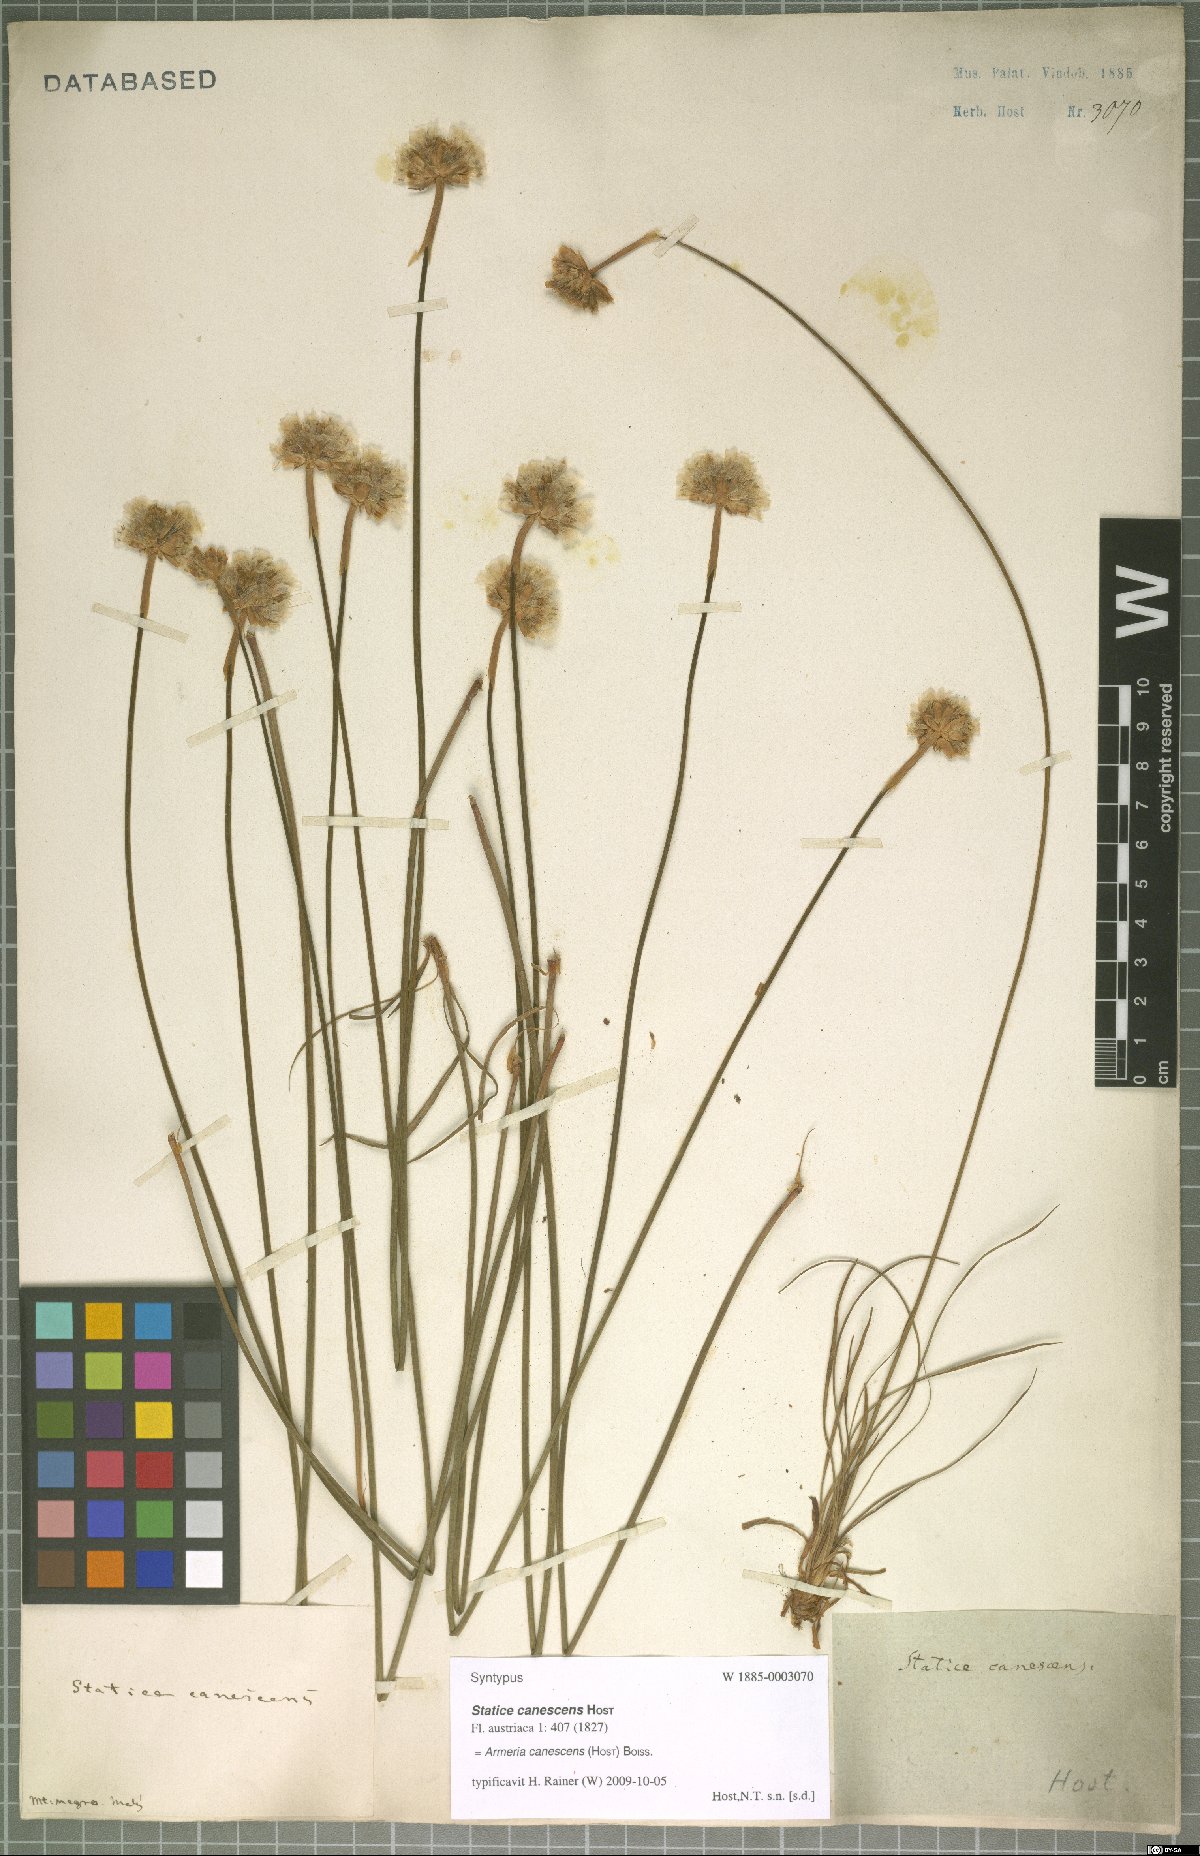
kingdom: Plantae
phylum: Tracheophyta
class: Magnoliopsida
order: Caryophyllales
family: Plumbaginaceae
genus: Armeria
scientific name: Armeria canescens
